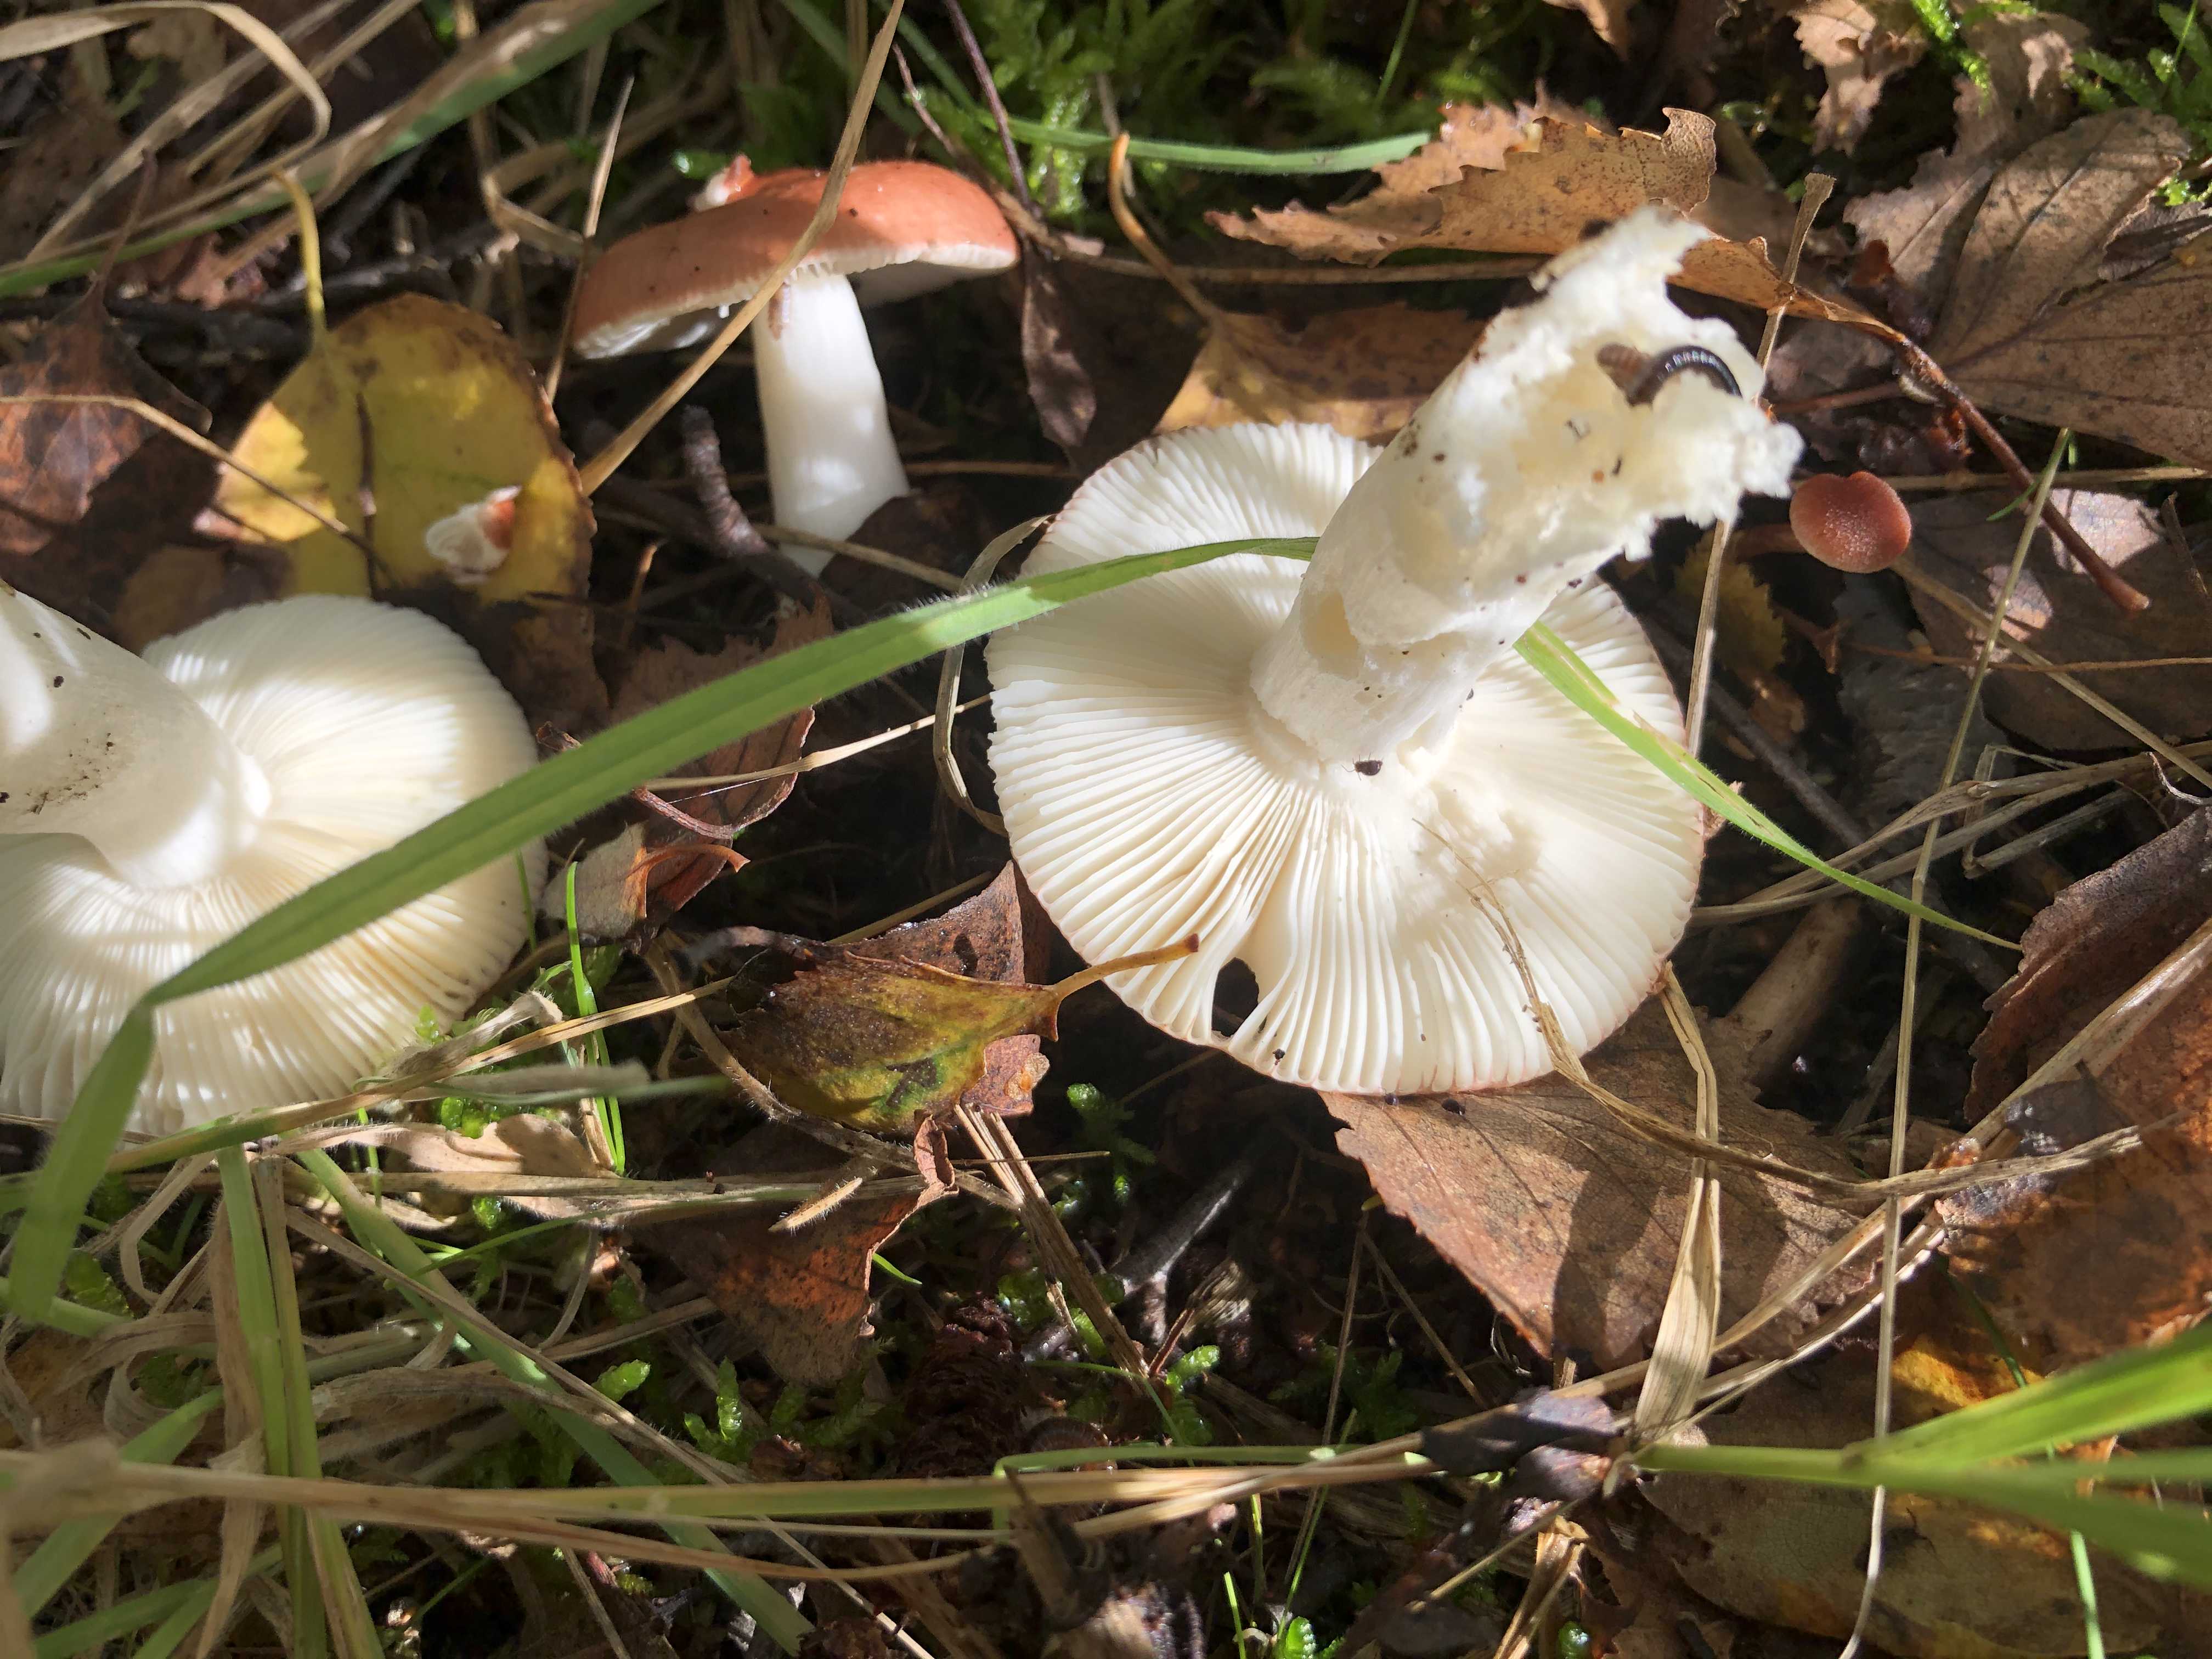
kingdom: Fungi
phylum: Basidiomycota
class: Agaricomycetes
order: Russulales
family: Russulaceae
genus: Russula
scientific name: Russula
